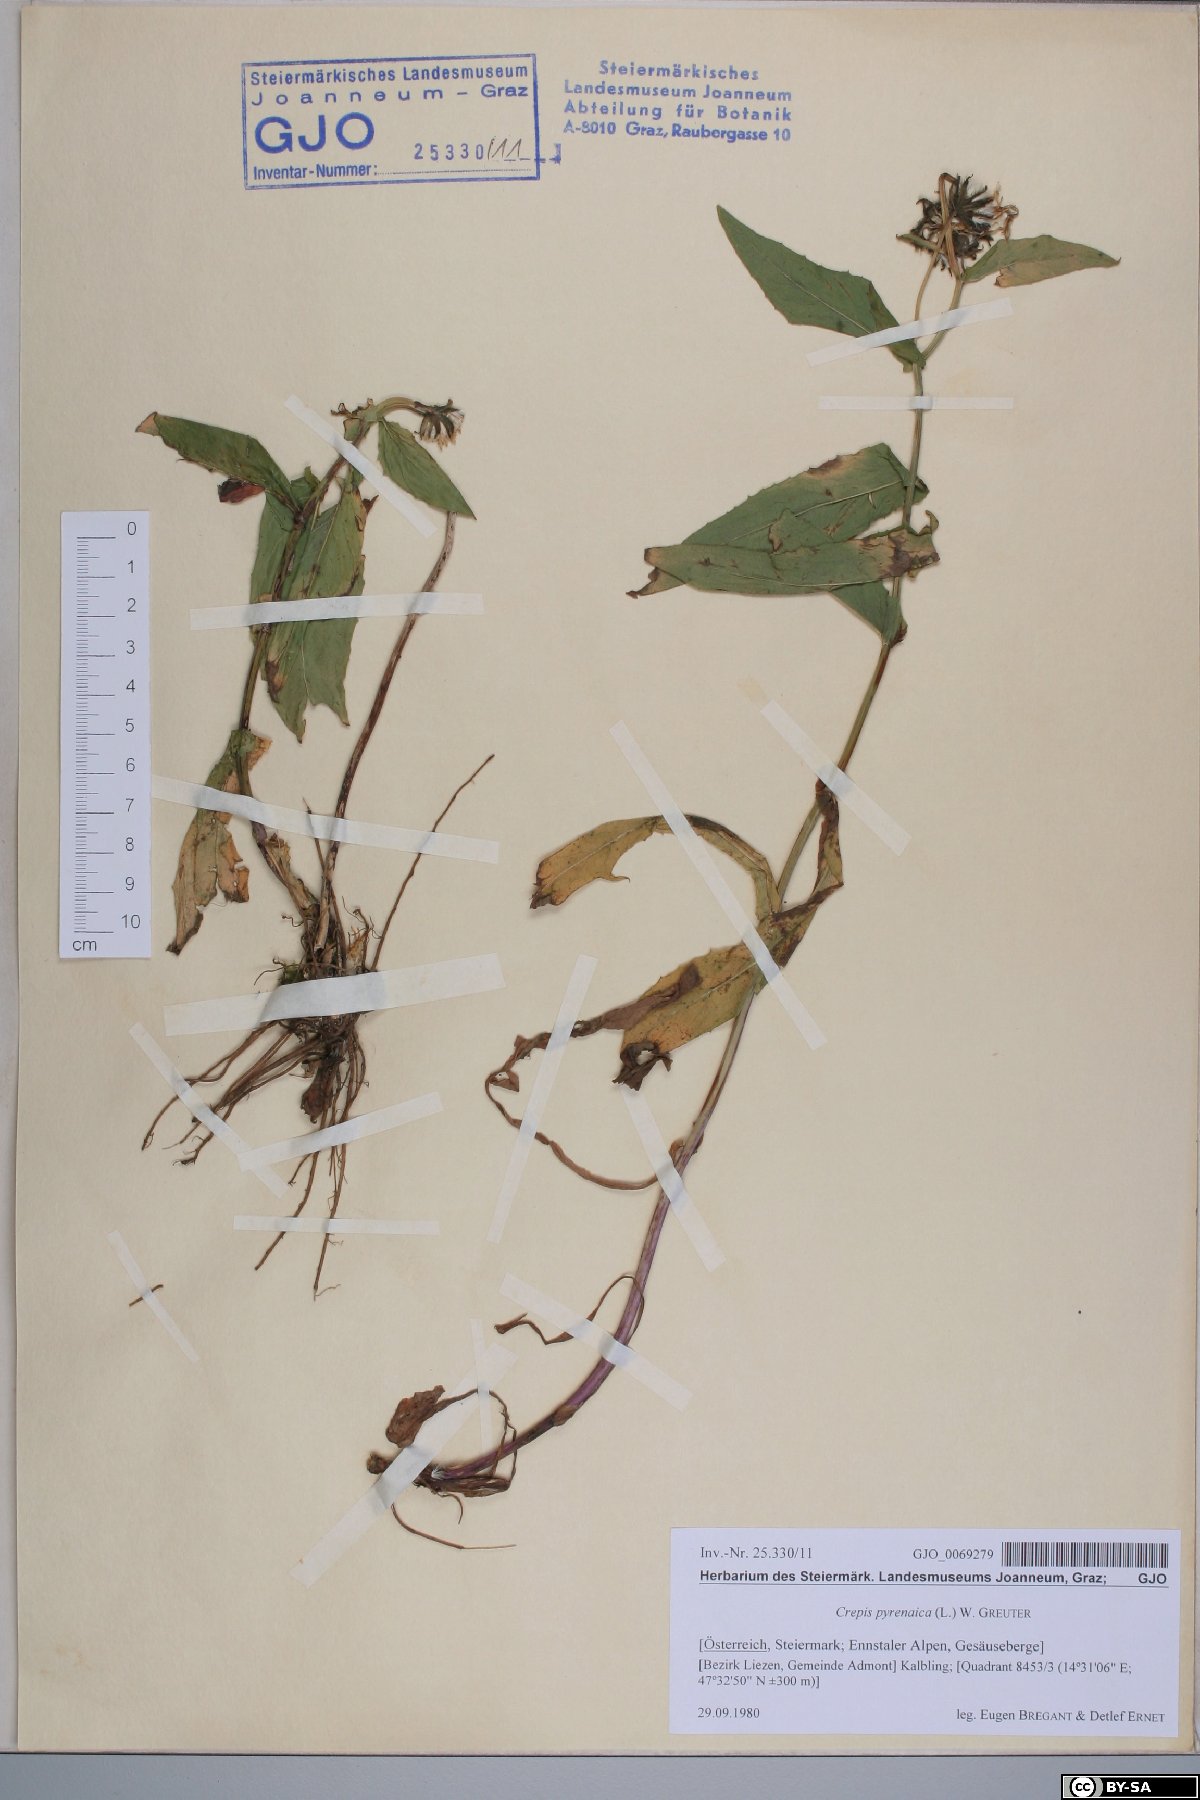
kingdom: Plantae
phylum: Tracheophyta
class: Magnoliopsida
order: Asterales
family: Asteraceae
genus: Crepis
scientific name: Crepis pyrenaica
